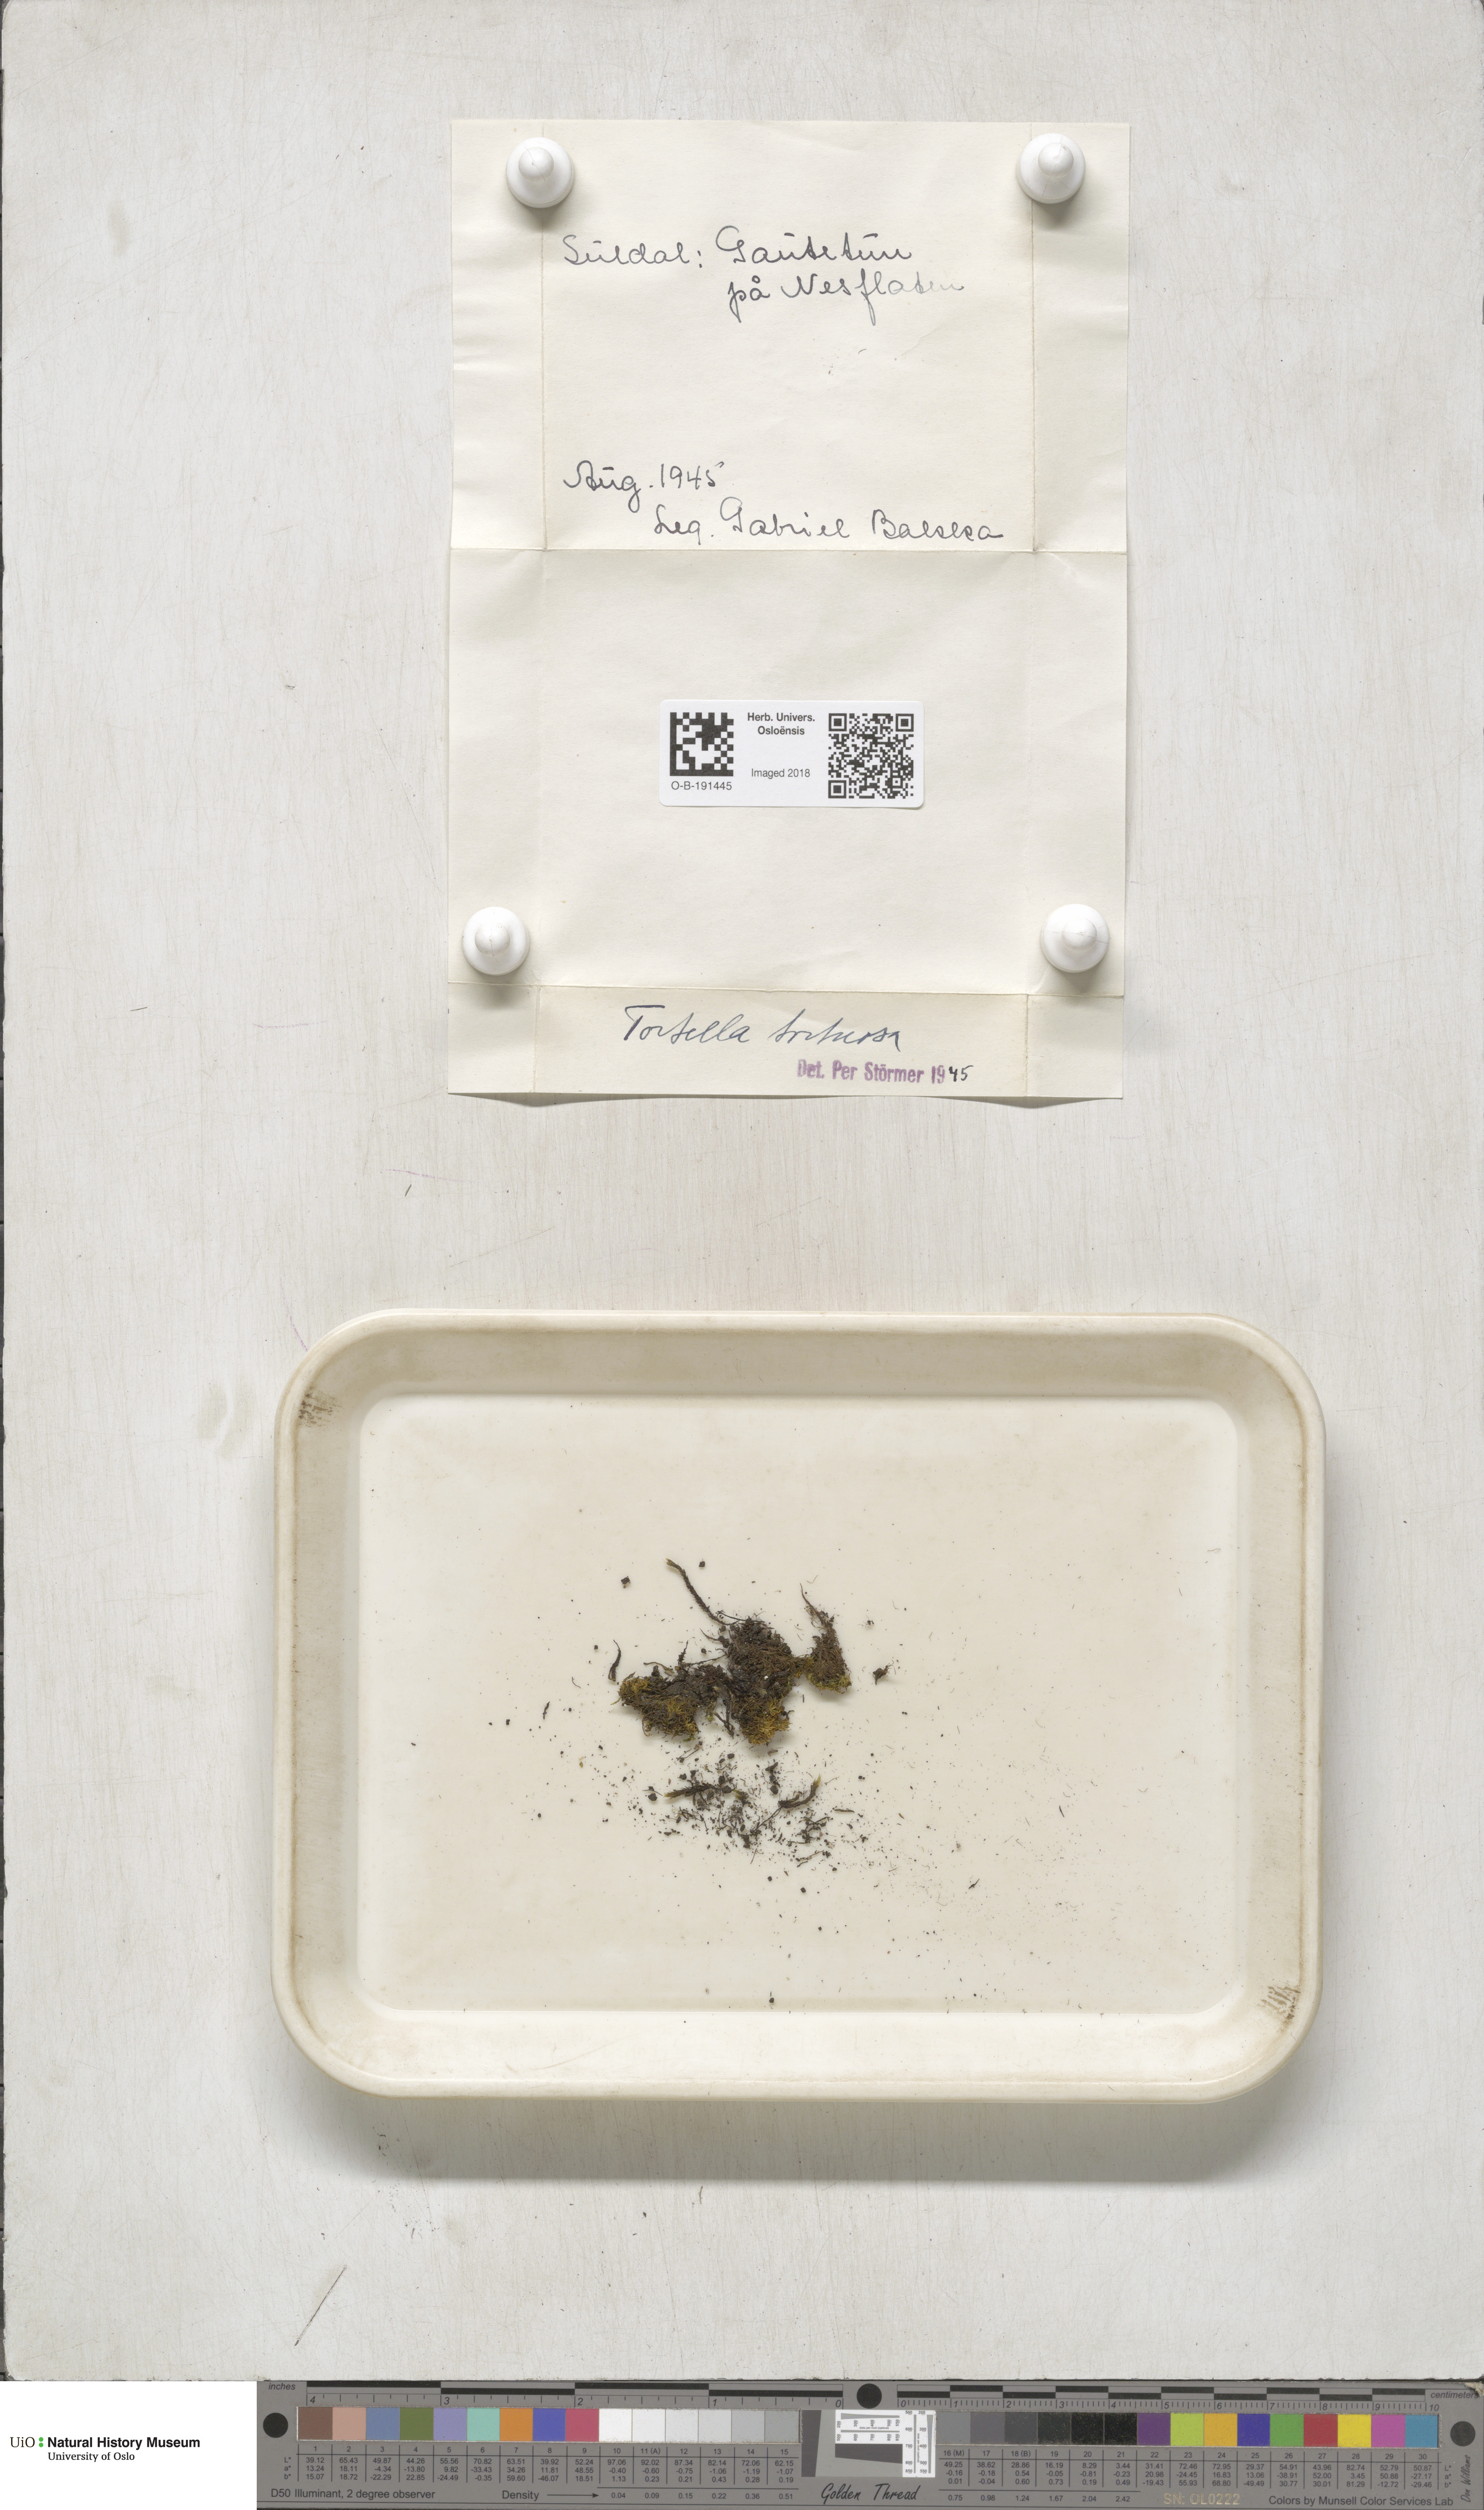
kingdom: Plantae
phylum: Bryophyta
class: Bryopsida
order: Pottiales
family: Pottiaceae
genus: Tortella
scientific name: Tortella tortuosa
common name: Frizzled crisp moss
